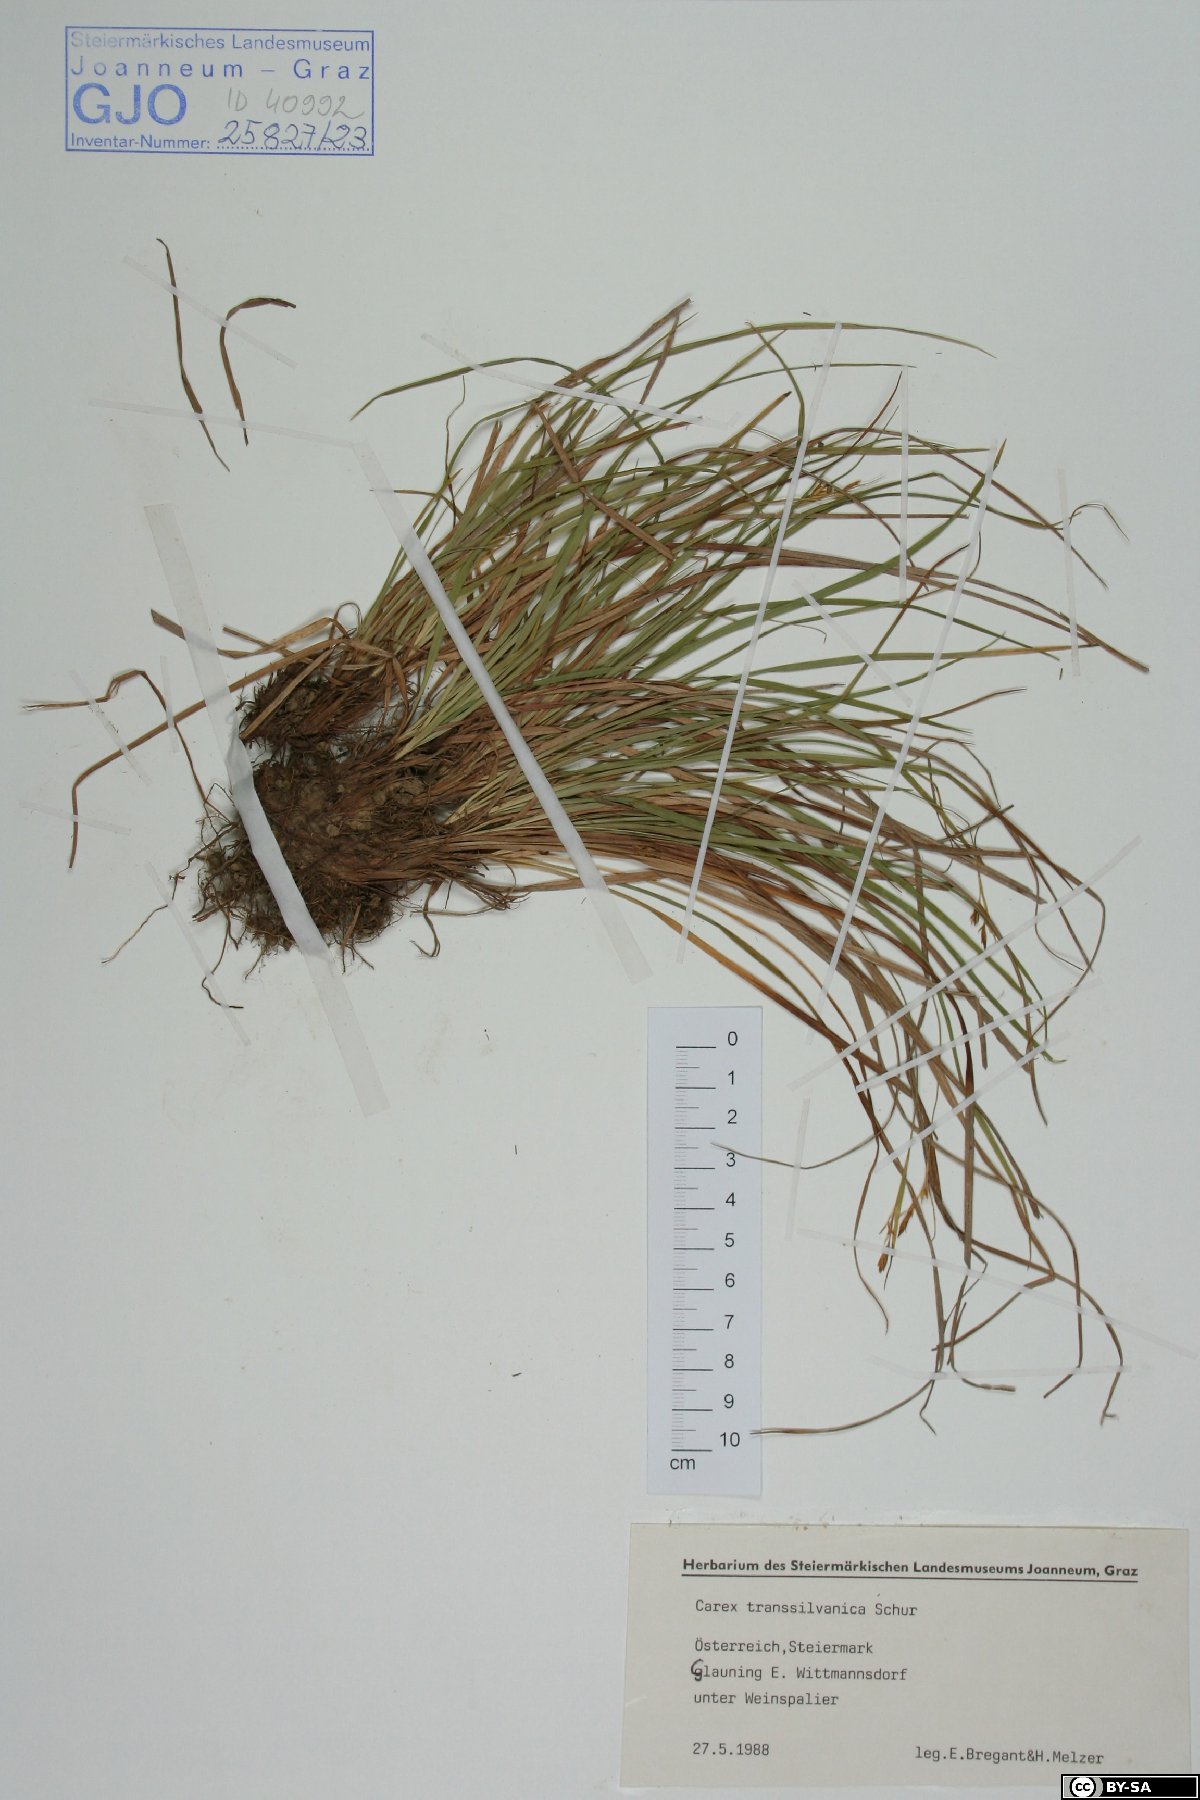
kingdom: Plantae
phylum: Tracheophyta
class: Liliopsida
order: Poales
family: Cyperaceae
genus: Carex
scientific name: Carex depressa
